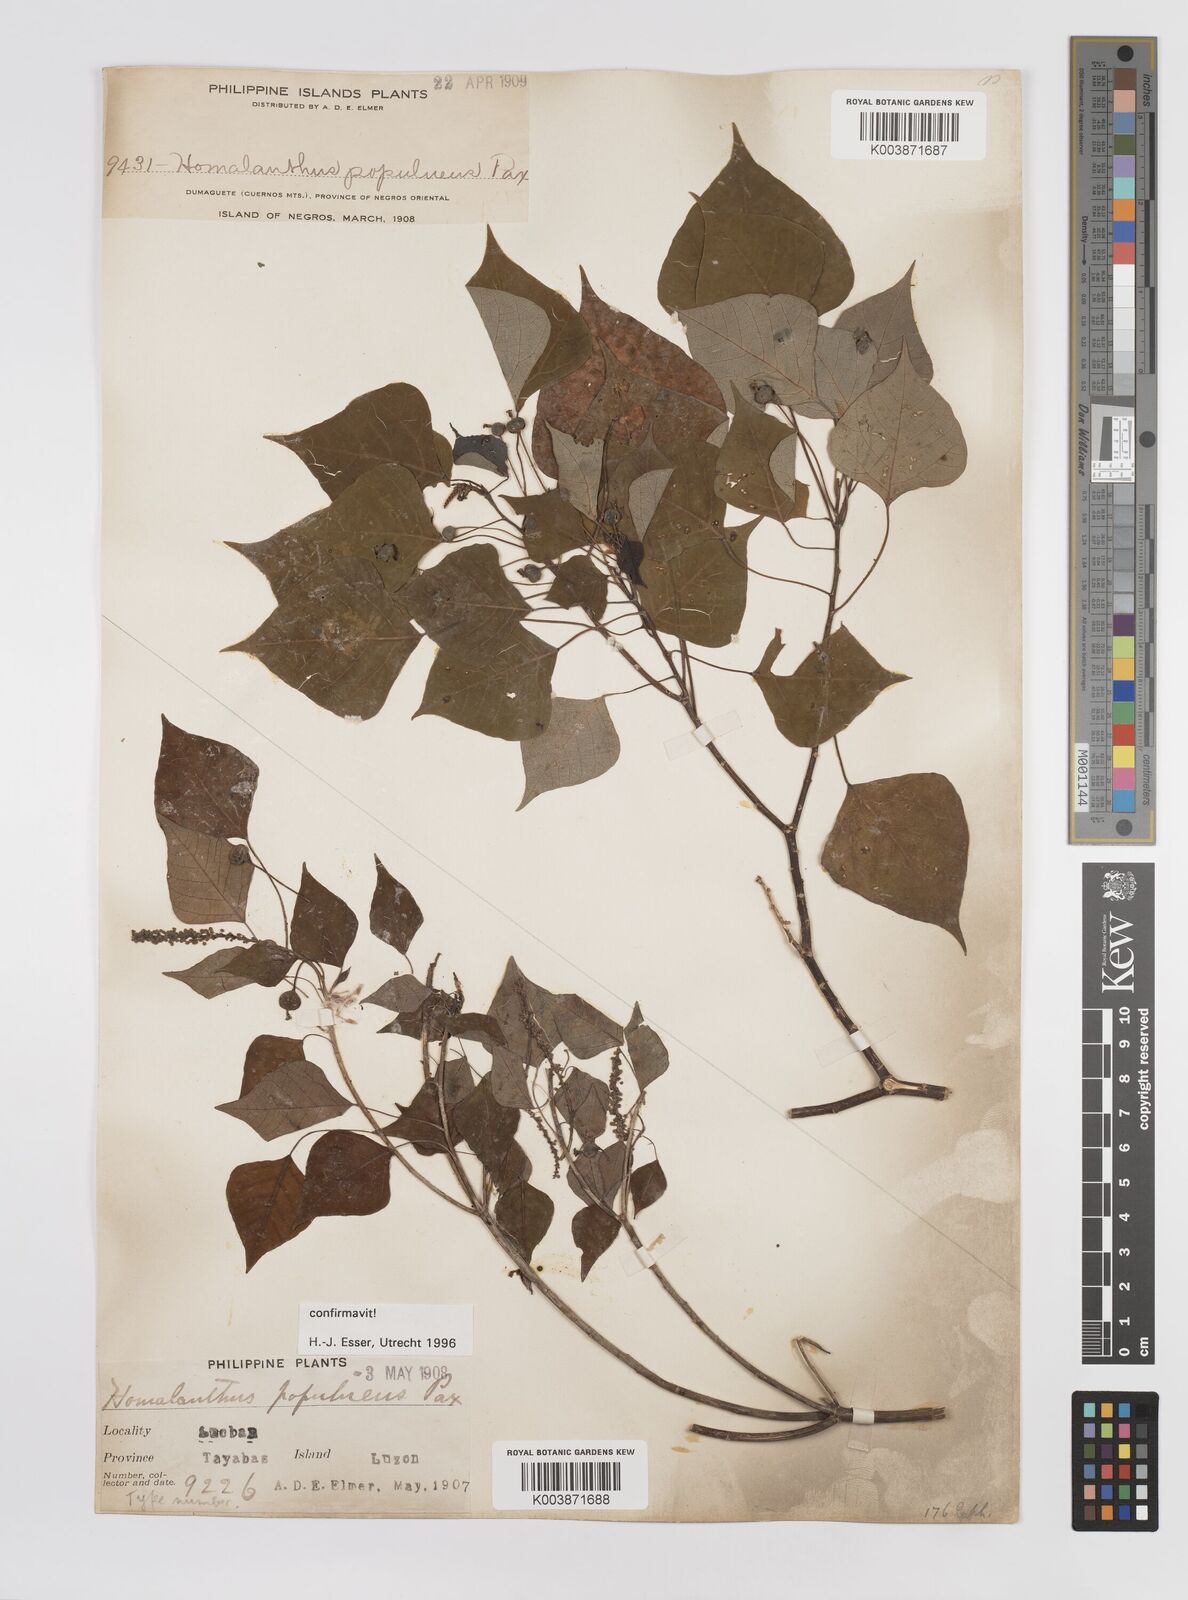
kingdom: Plantae
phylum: Tracheophyta
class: Magnoliopsida
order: Malpighiales
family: Euphorbiaceae
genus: Homalanthus
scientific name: Homalanthus populneus
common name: Spurge
